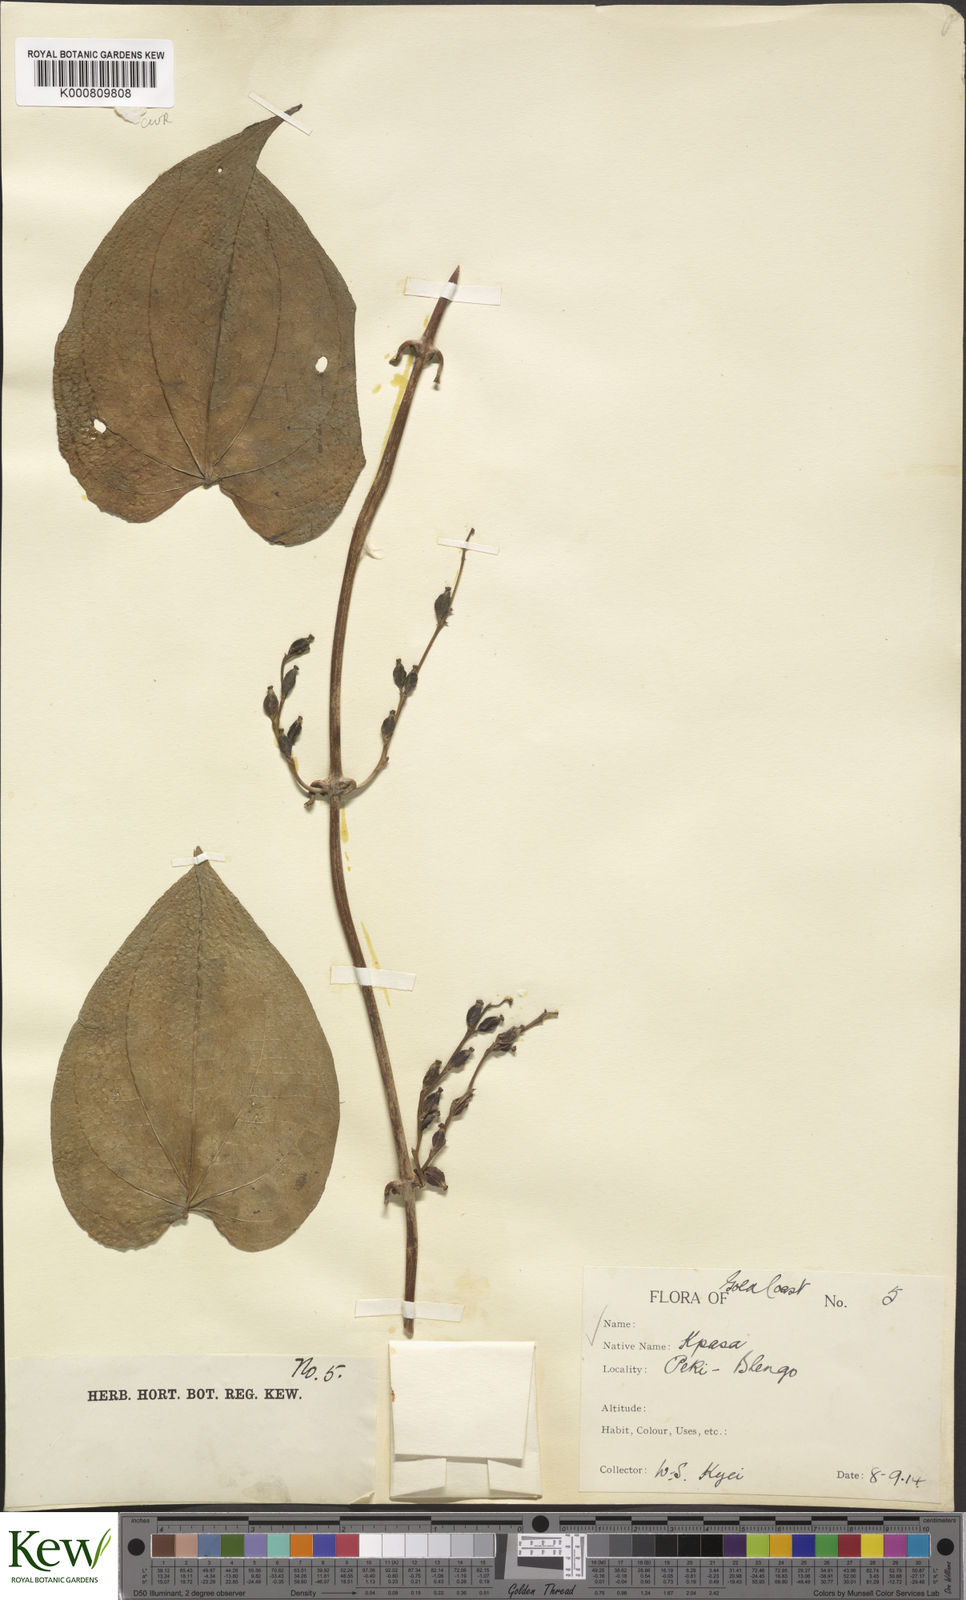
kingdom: Plantae
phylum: Tracheophyta
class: Liliopsida
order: Dioscoreales
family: Dioscoreaceae
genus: Dioscorea
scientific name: Dioscorea cayenensis
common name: Attoto yam
